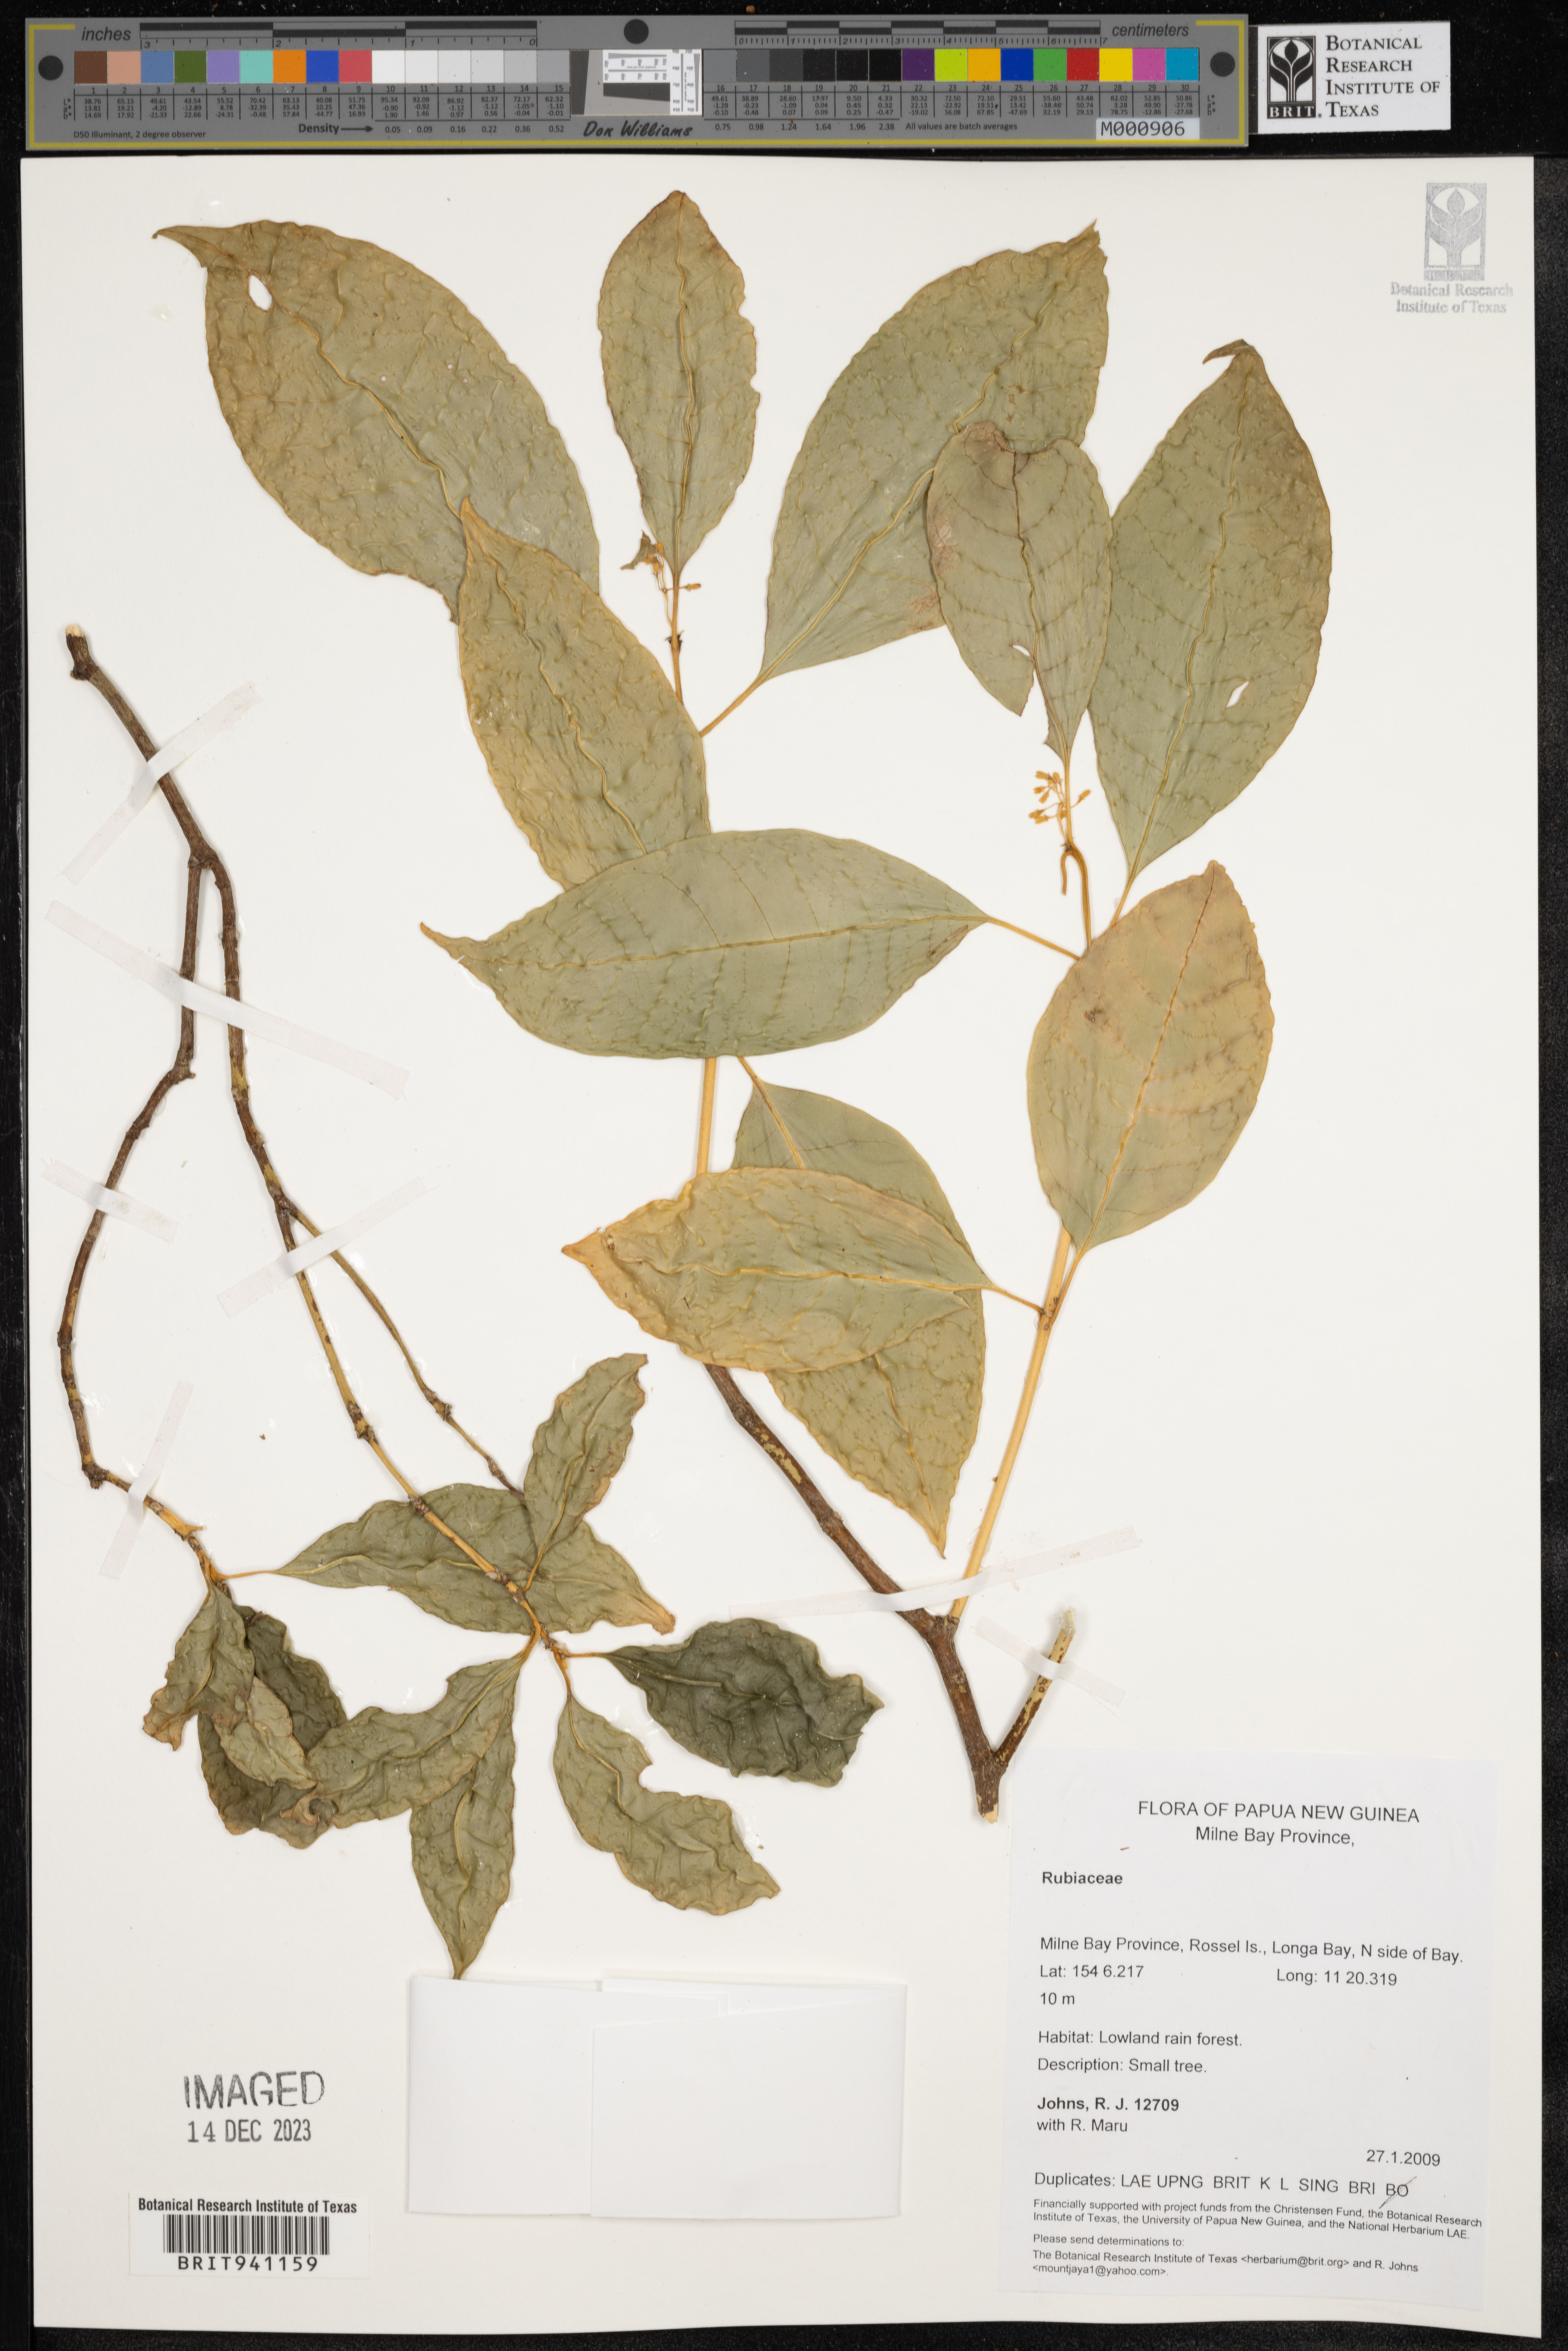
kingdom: Plantae
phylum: Tracheophyta
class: Magnoliopsida
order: Gentianales
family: Rubiaceae
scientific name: Rubiaceae
